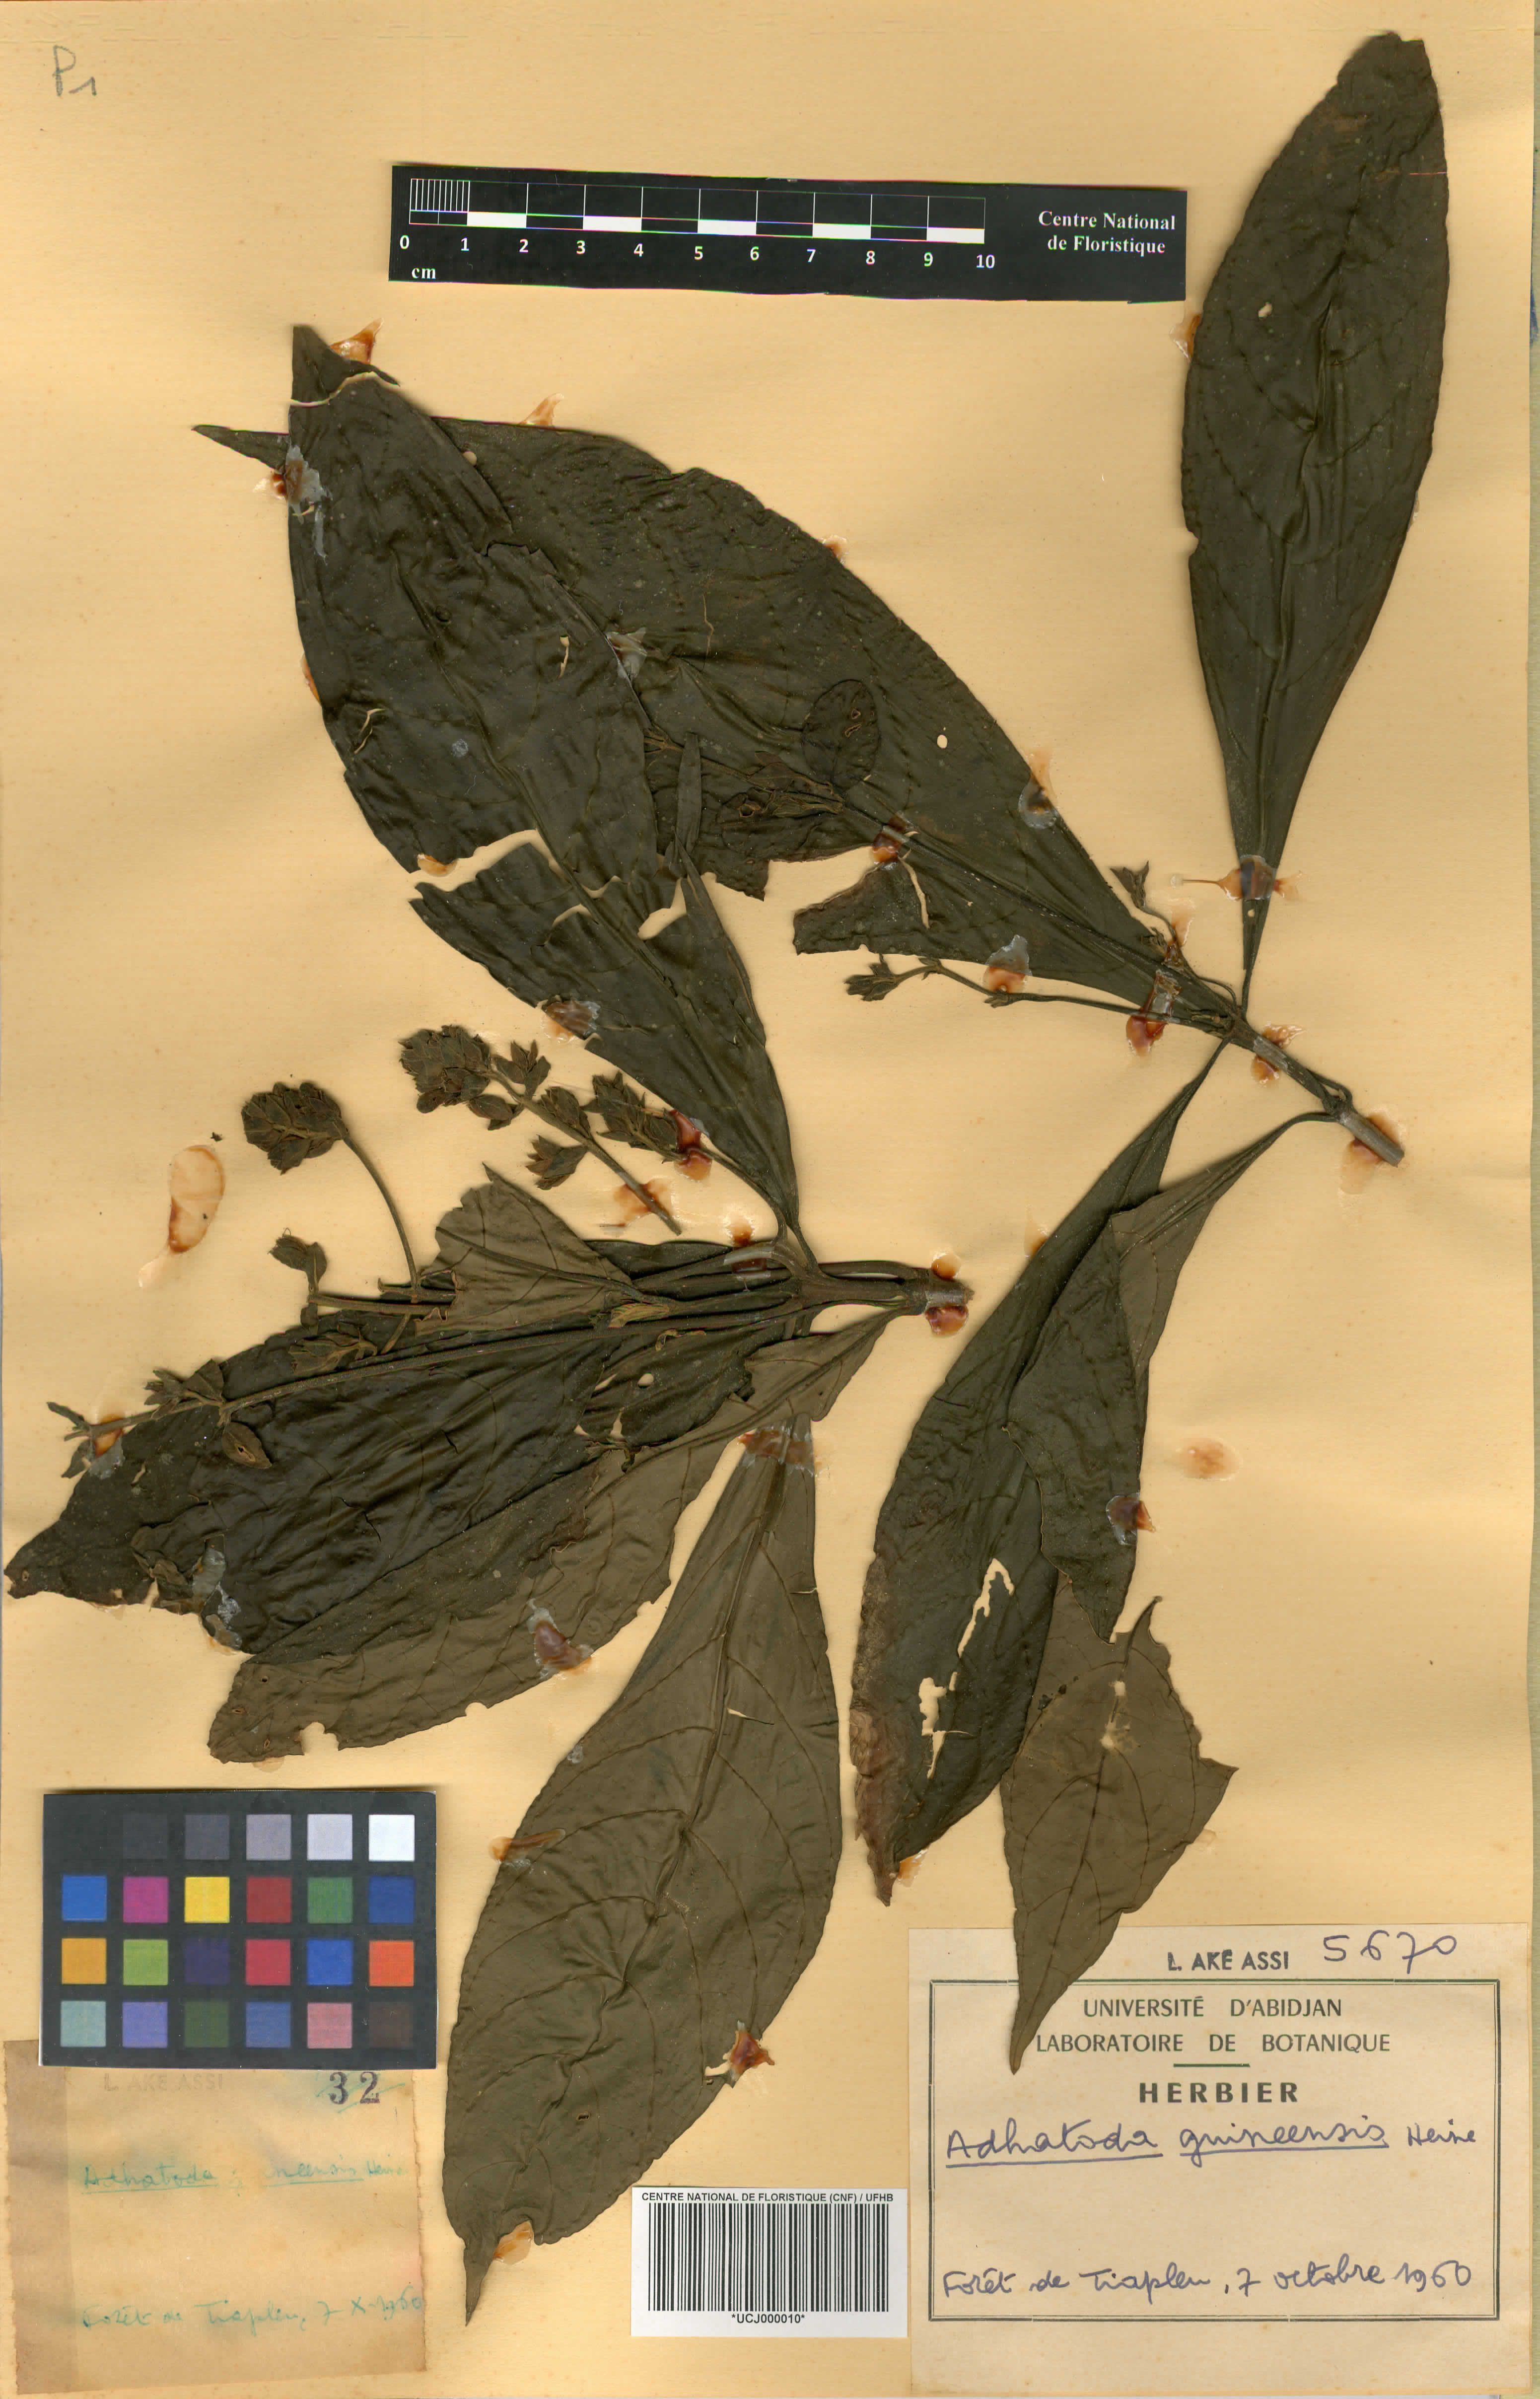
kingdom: Plantae
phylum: Tracheophyta
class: Magnoliopsida
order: Lamiales
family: Acanthaceae
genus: Justicia
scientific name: Justicia guineensis
